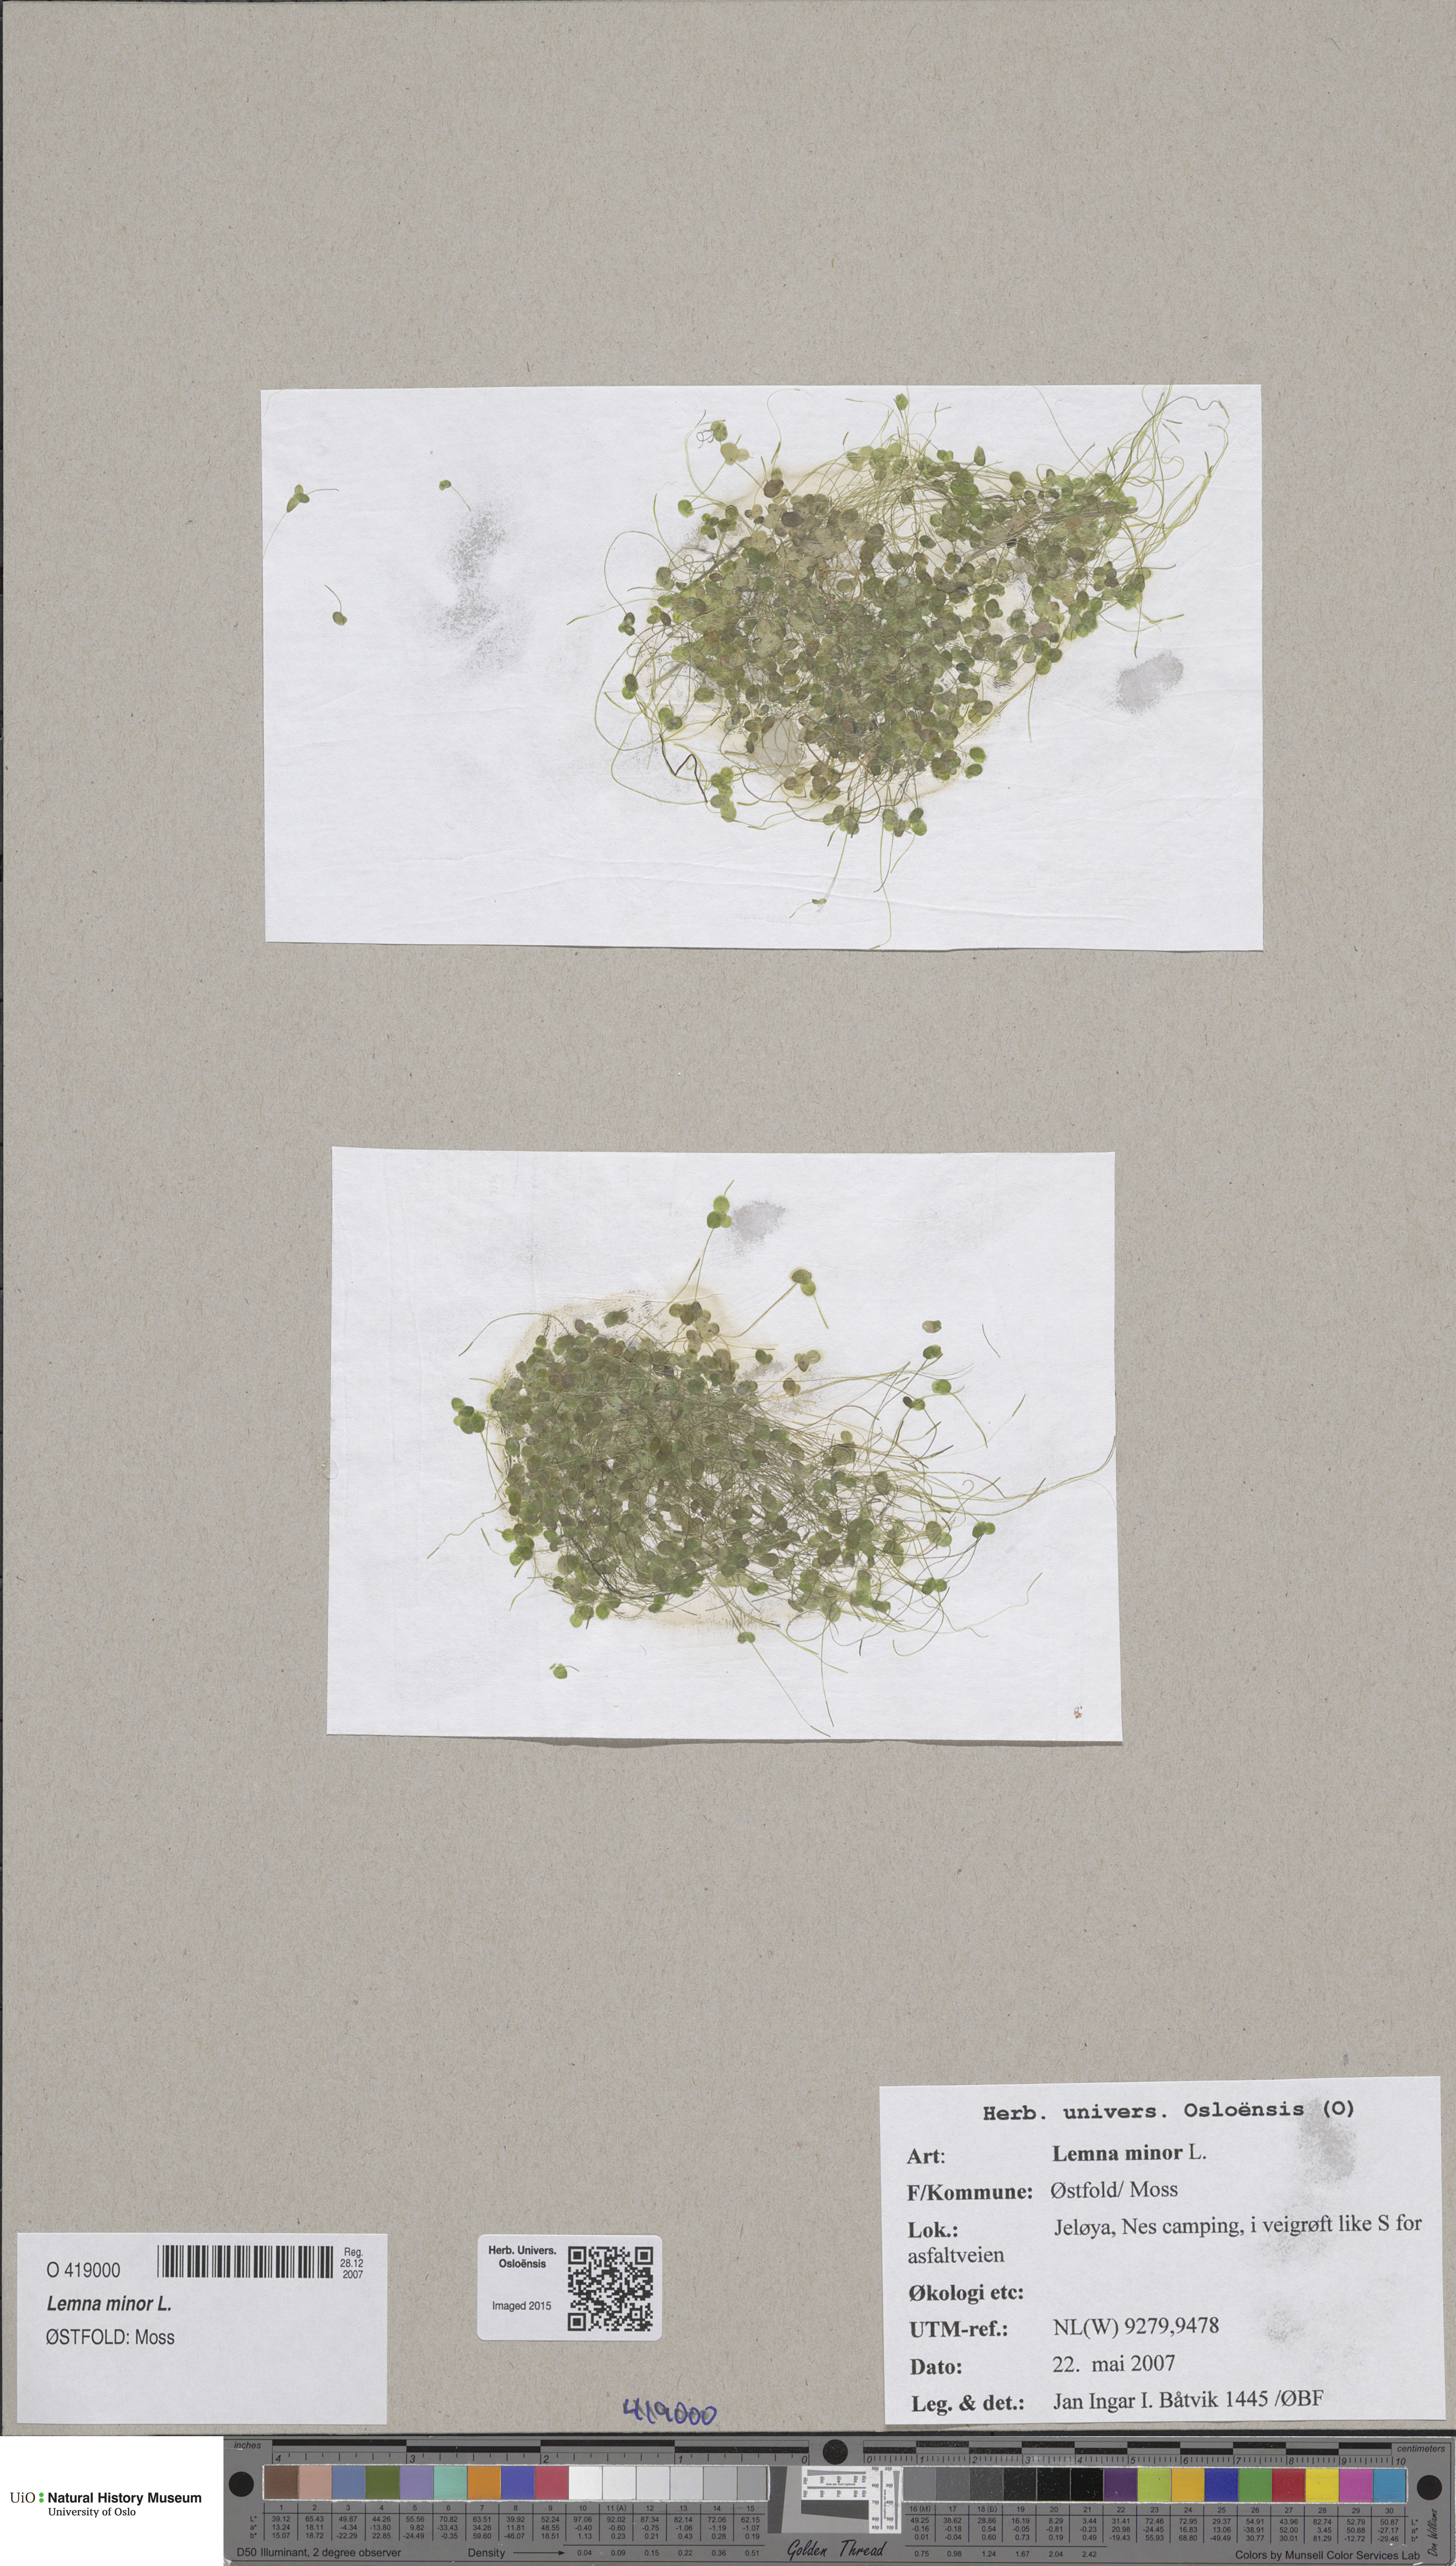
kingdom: Plantae
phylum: Tracheophyta
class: Liliopsida
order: Alismatales
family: Araceae
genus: Lemna
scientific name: Lemna minor
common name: Common duckweed
